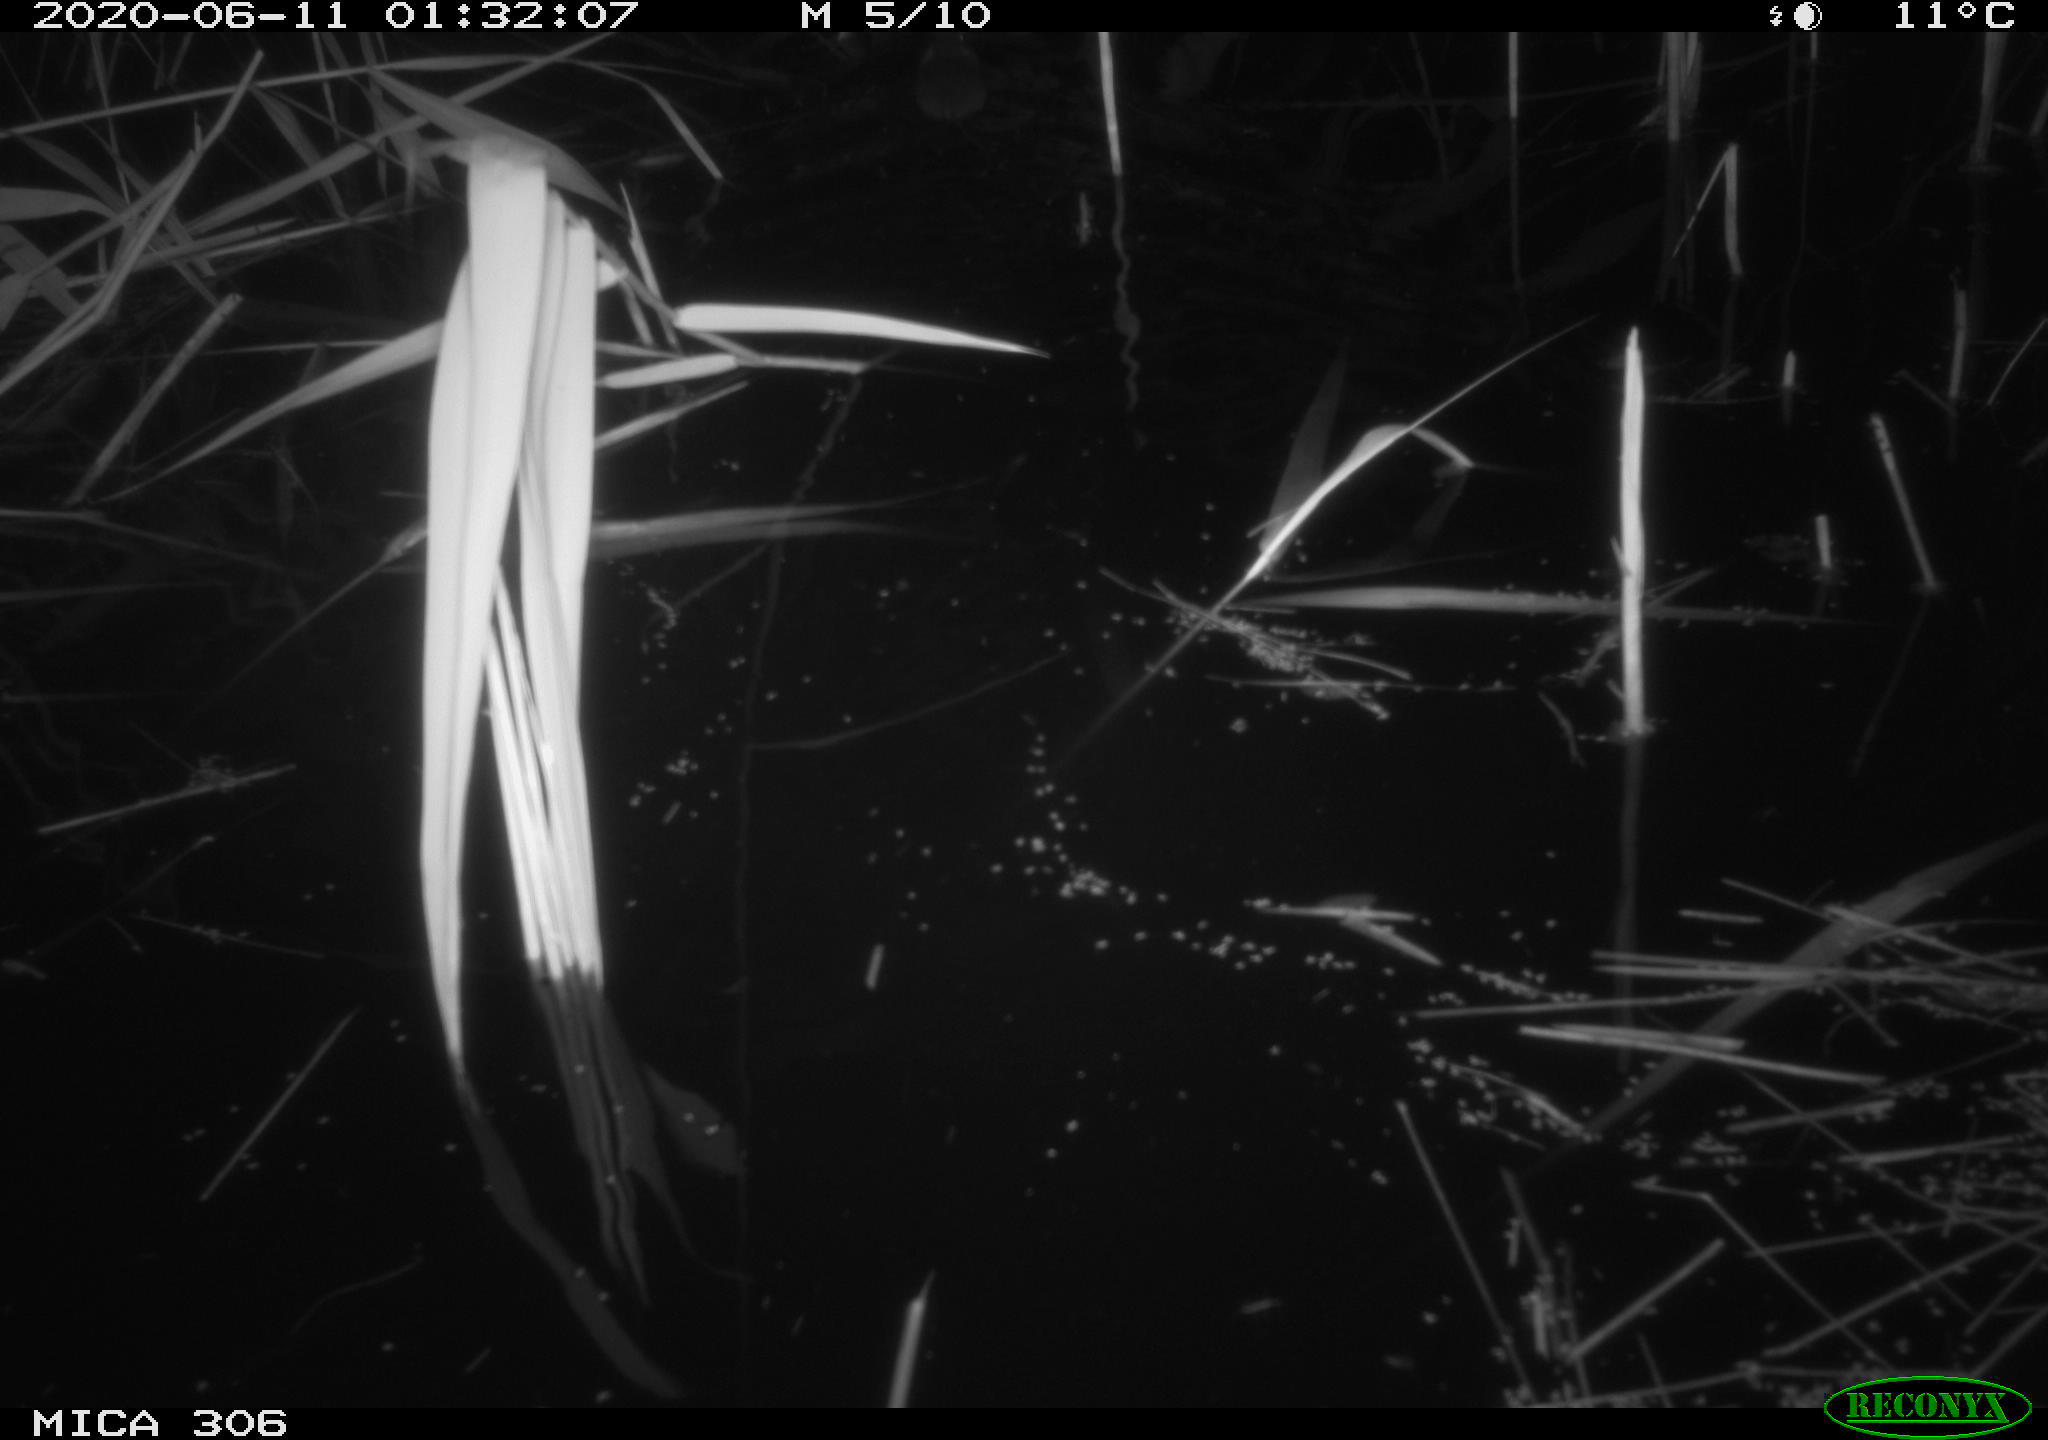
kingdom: Animalia
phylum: Chordata
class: Mammalia
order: Rodentia
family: Muridae
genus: Rattus
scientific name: Rattus norvegicus
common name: Brown rat
